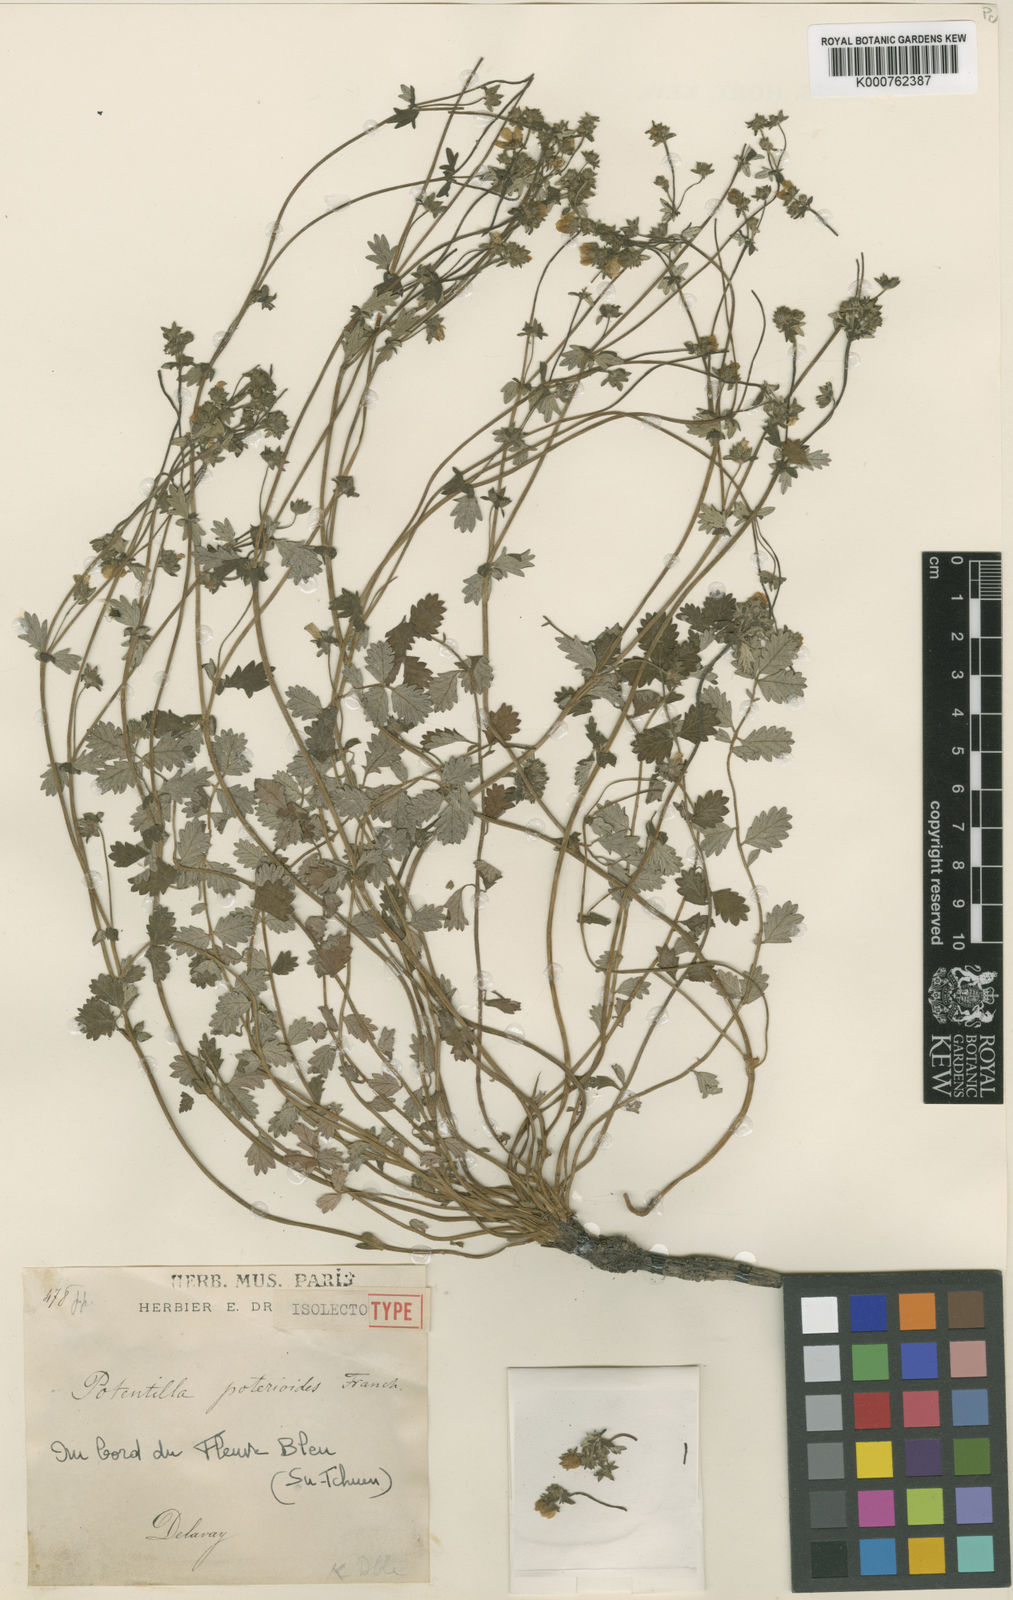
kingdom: Plantae
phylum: Tracheophyta
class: Magnoliopsida
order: Rosales
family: Rosaceae
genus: Potentilla
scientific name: Potentilla poterioides
